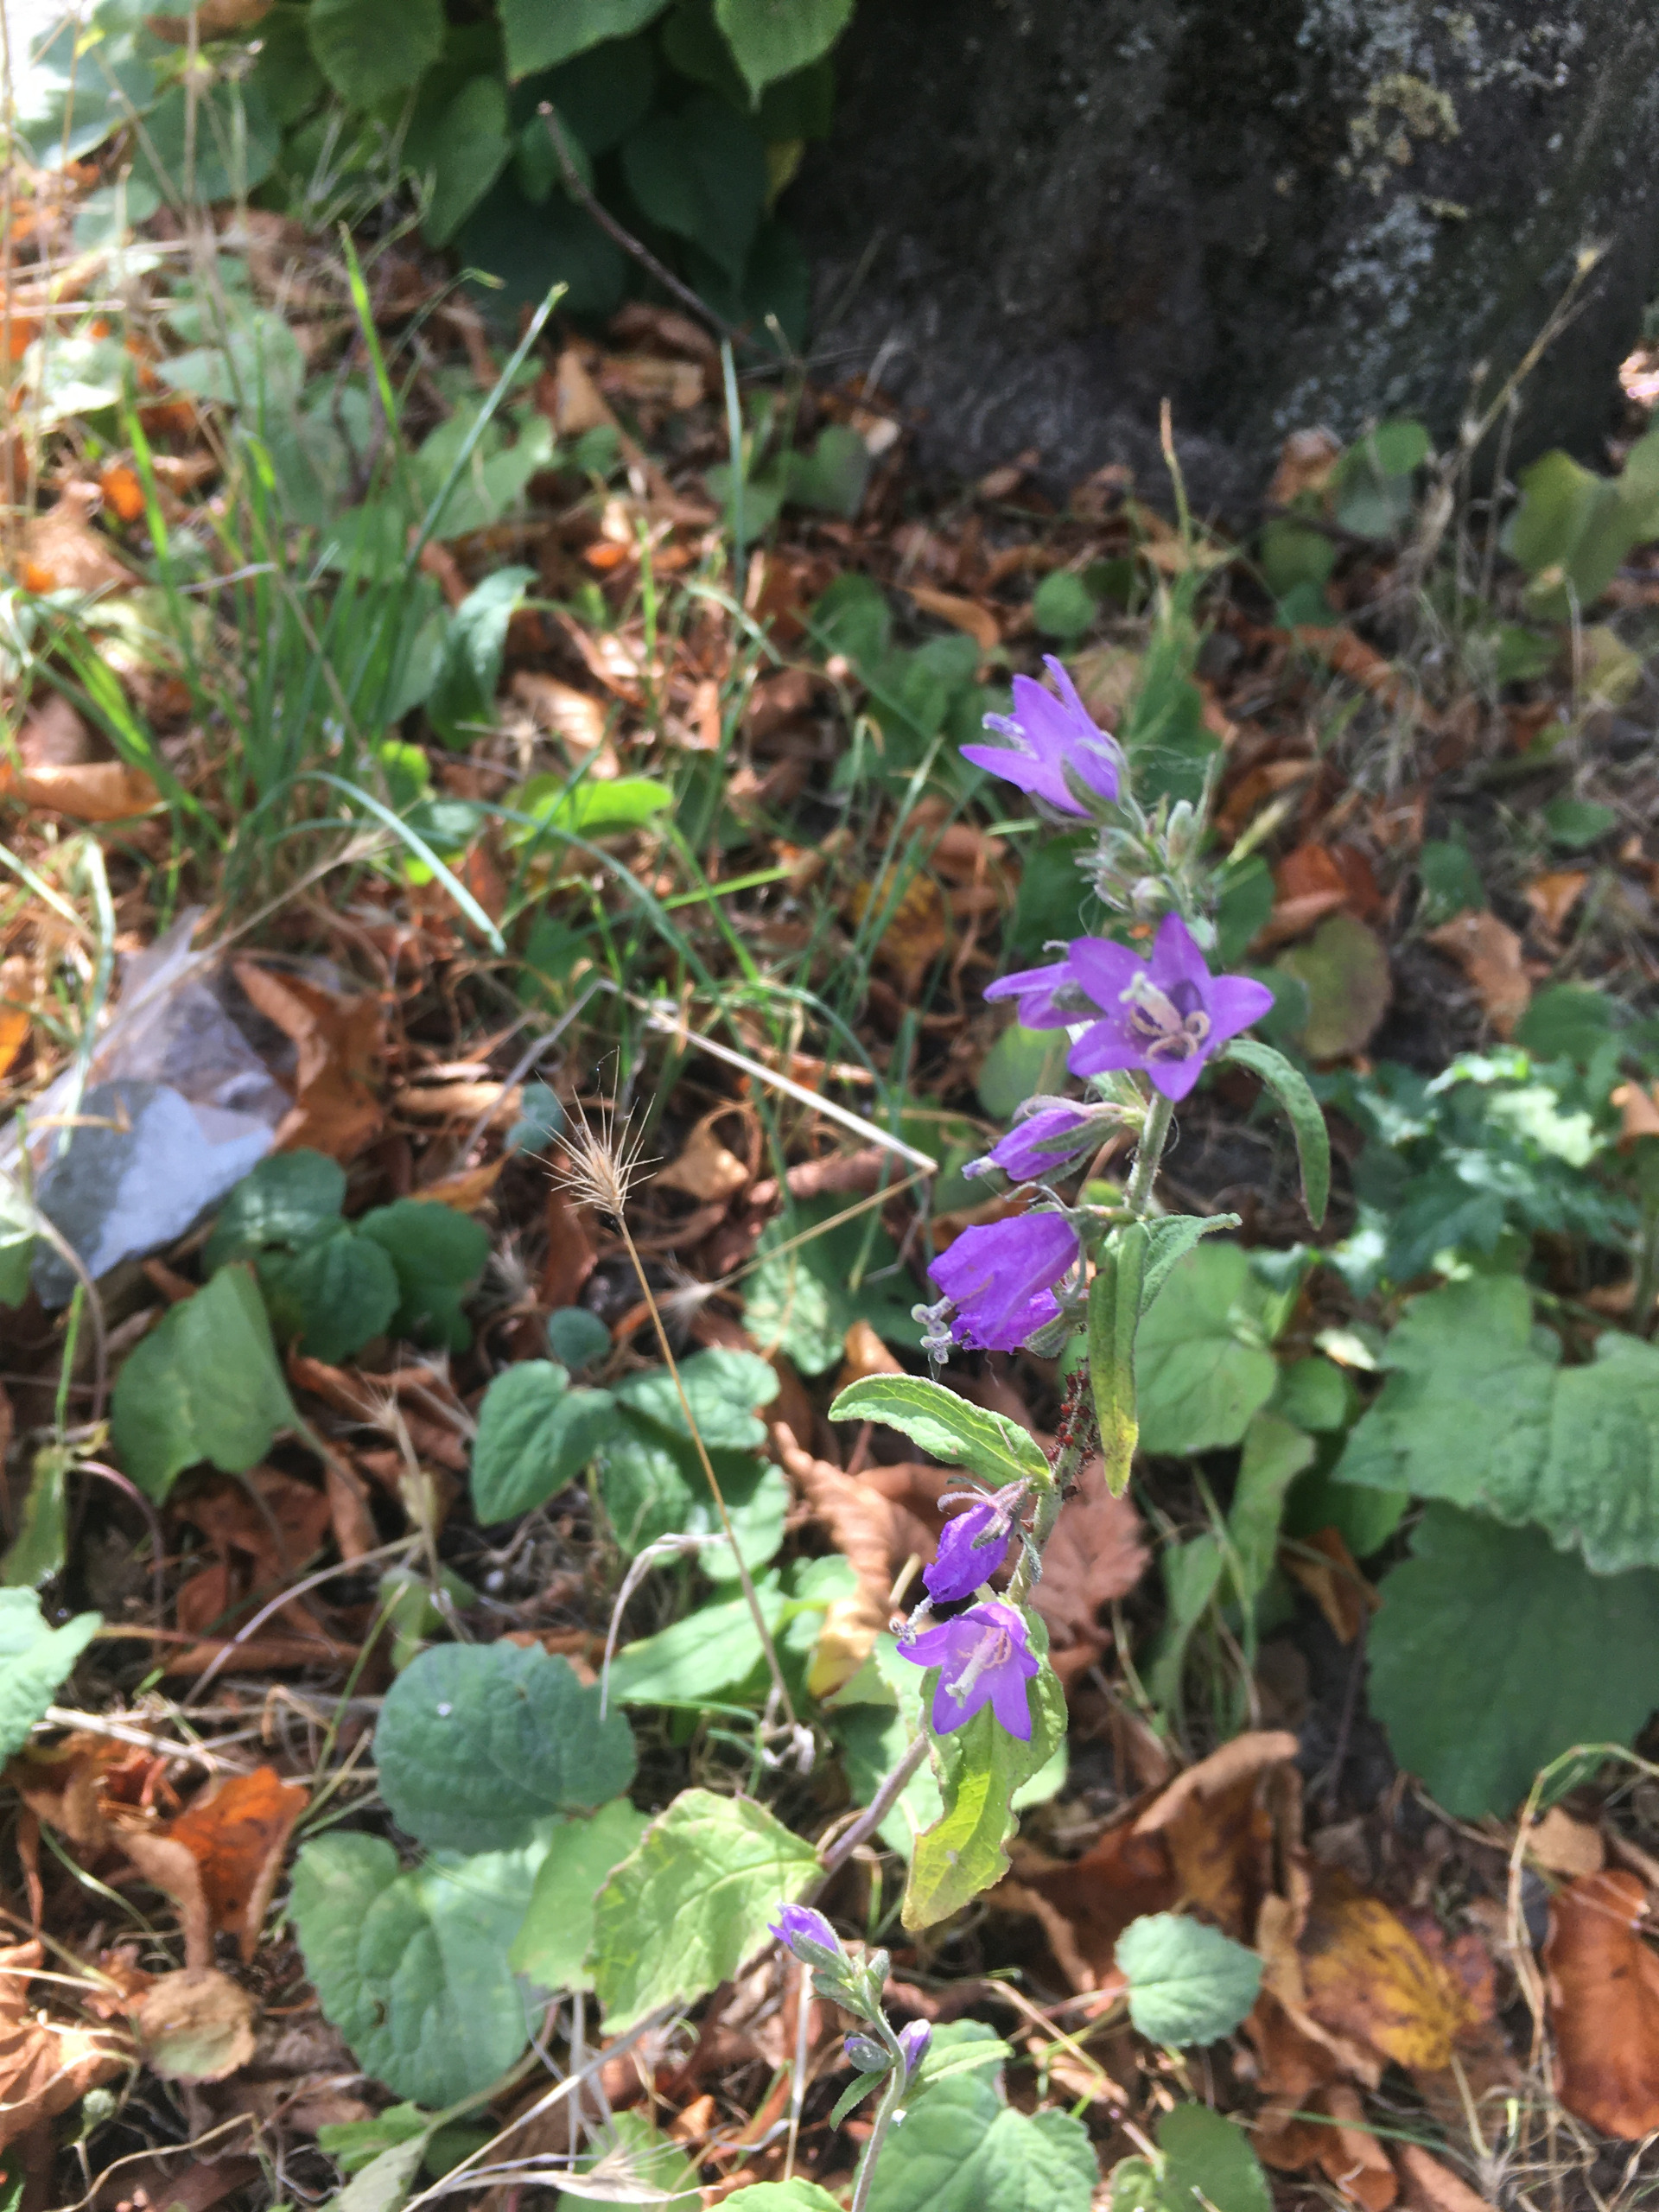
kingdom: Plantae
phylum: Tracheophyta
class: Magnoliopsida
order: Asterales
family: Campanulaceae
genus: Campanula
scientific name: Campanula trachelium
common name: Nælde-klokke
